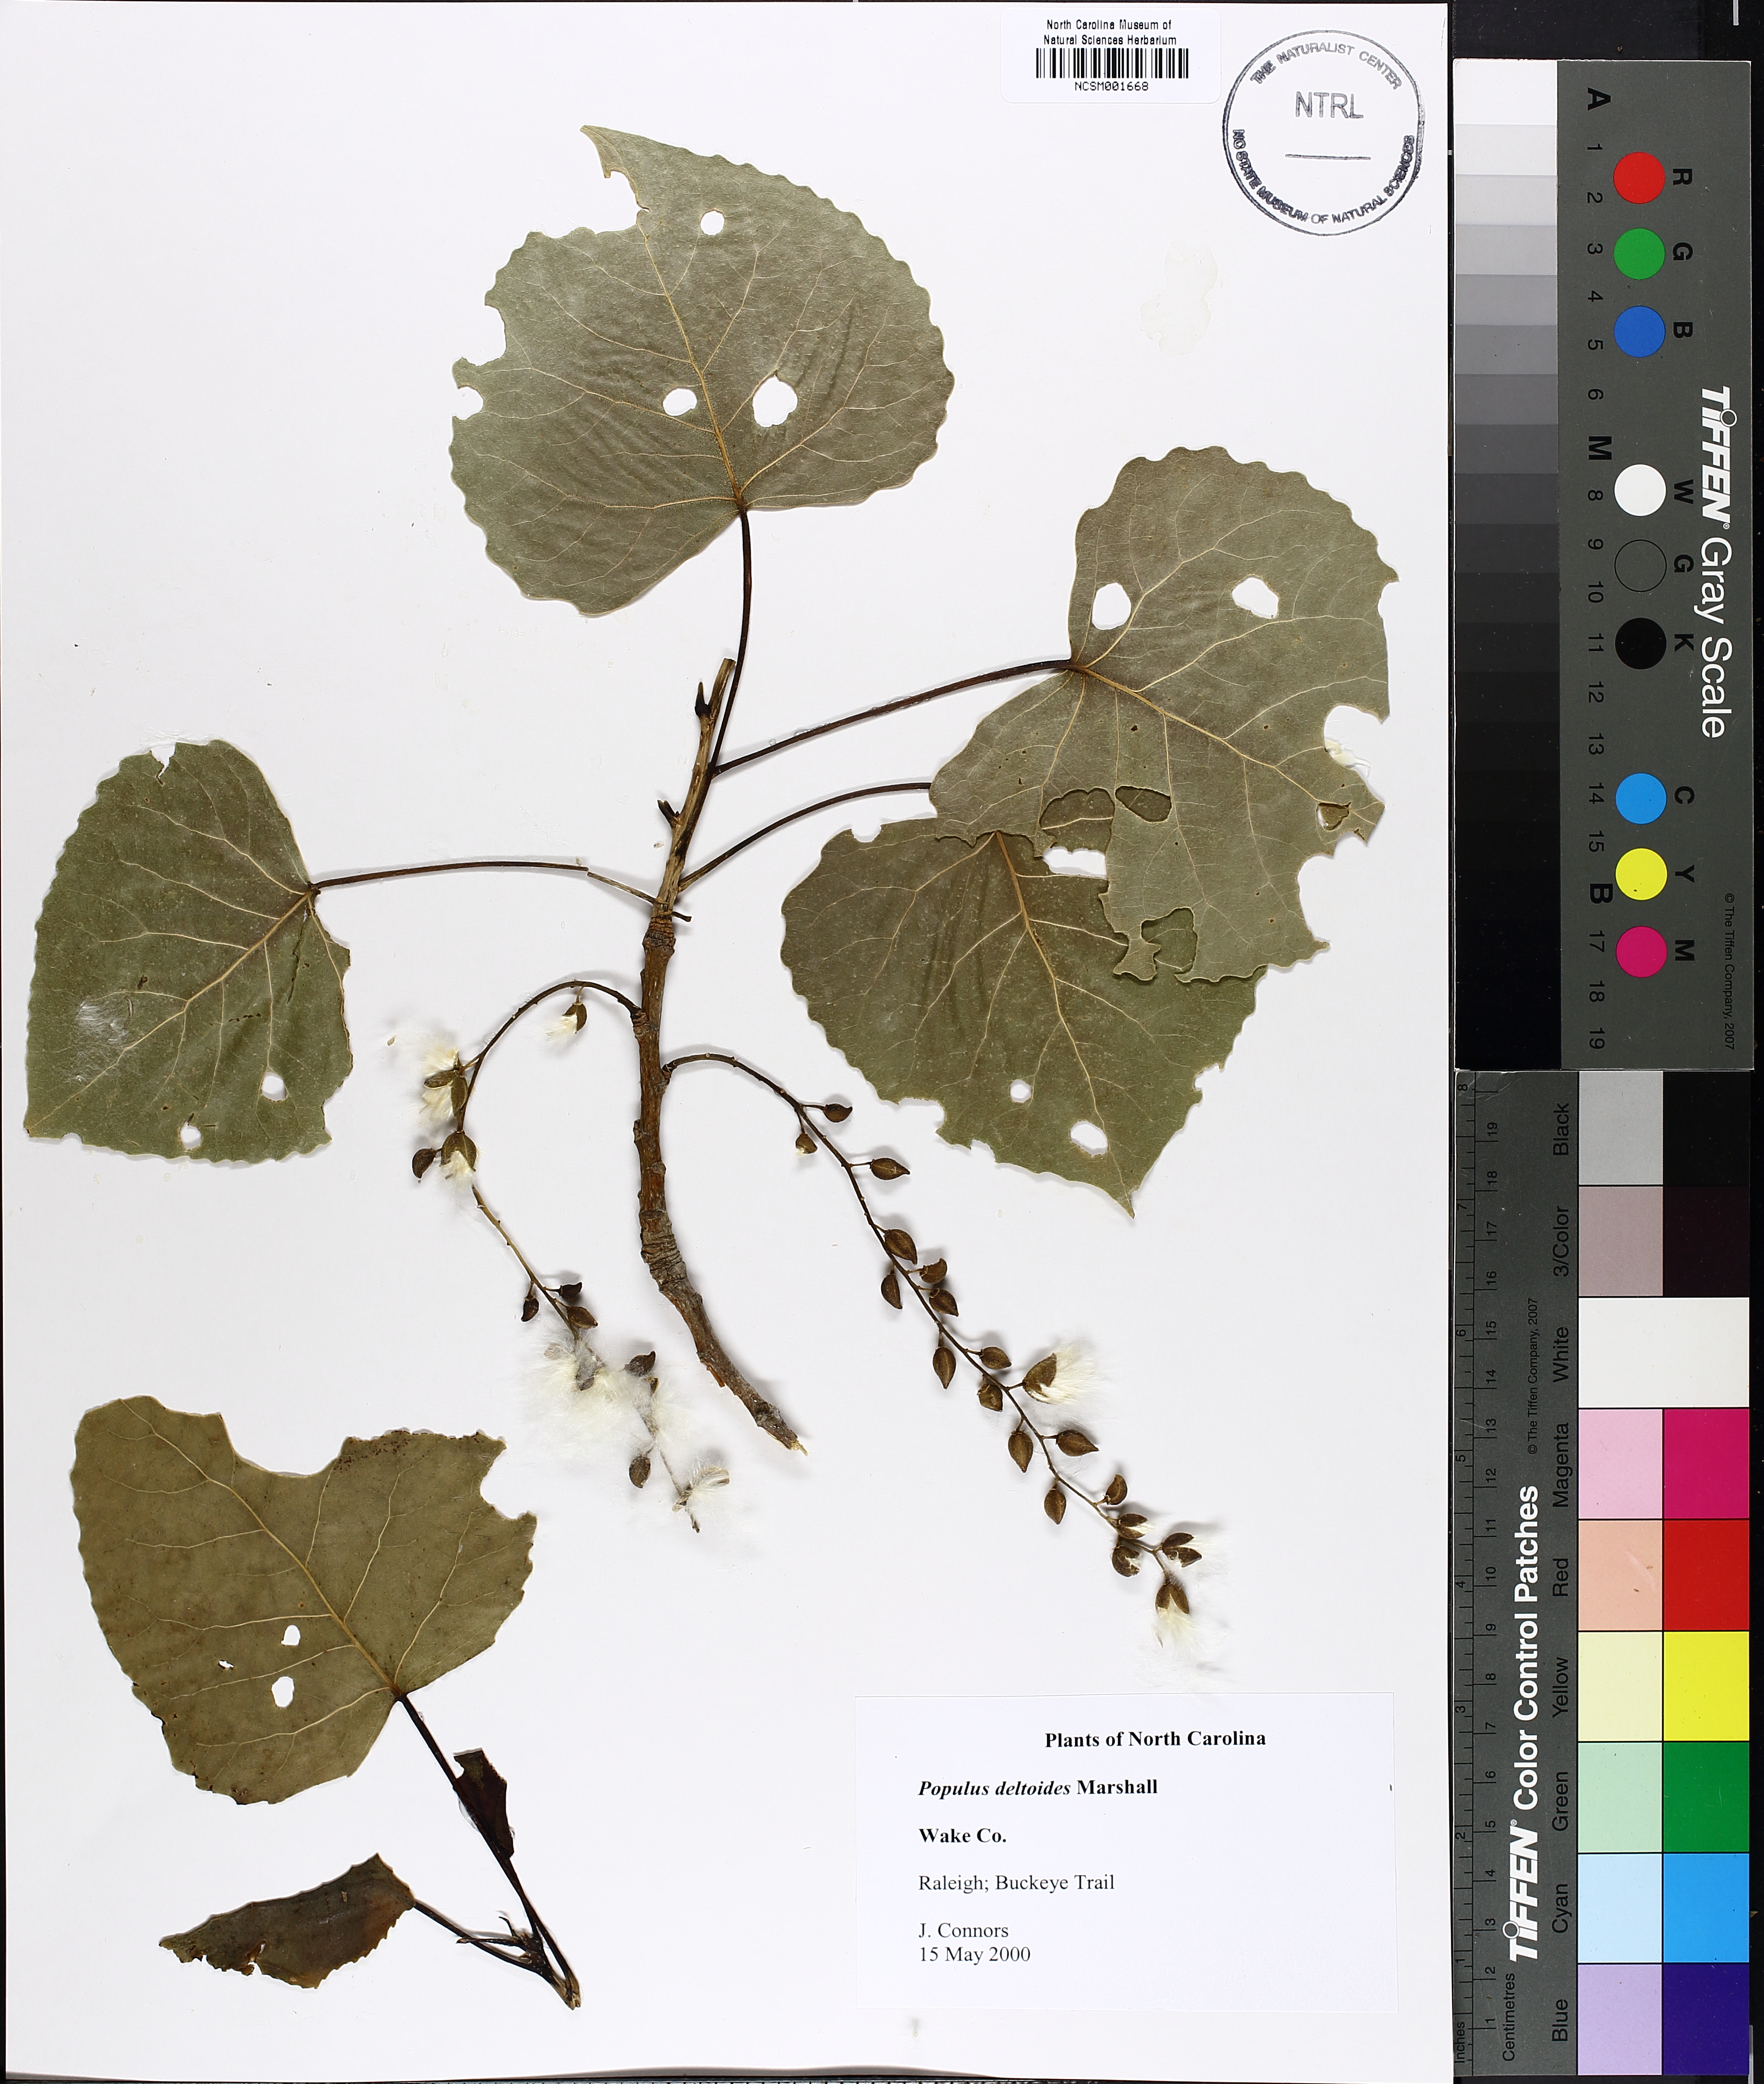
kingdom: Plantae
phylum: Tracheophyta
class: Magnoliopsida
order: Malpighiales
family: Salicaceae
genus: Populus
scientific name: Populus deltoides
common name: Eastern cottonwood
